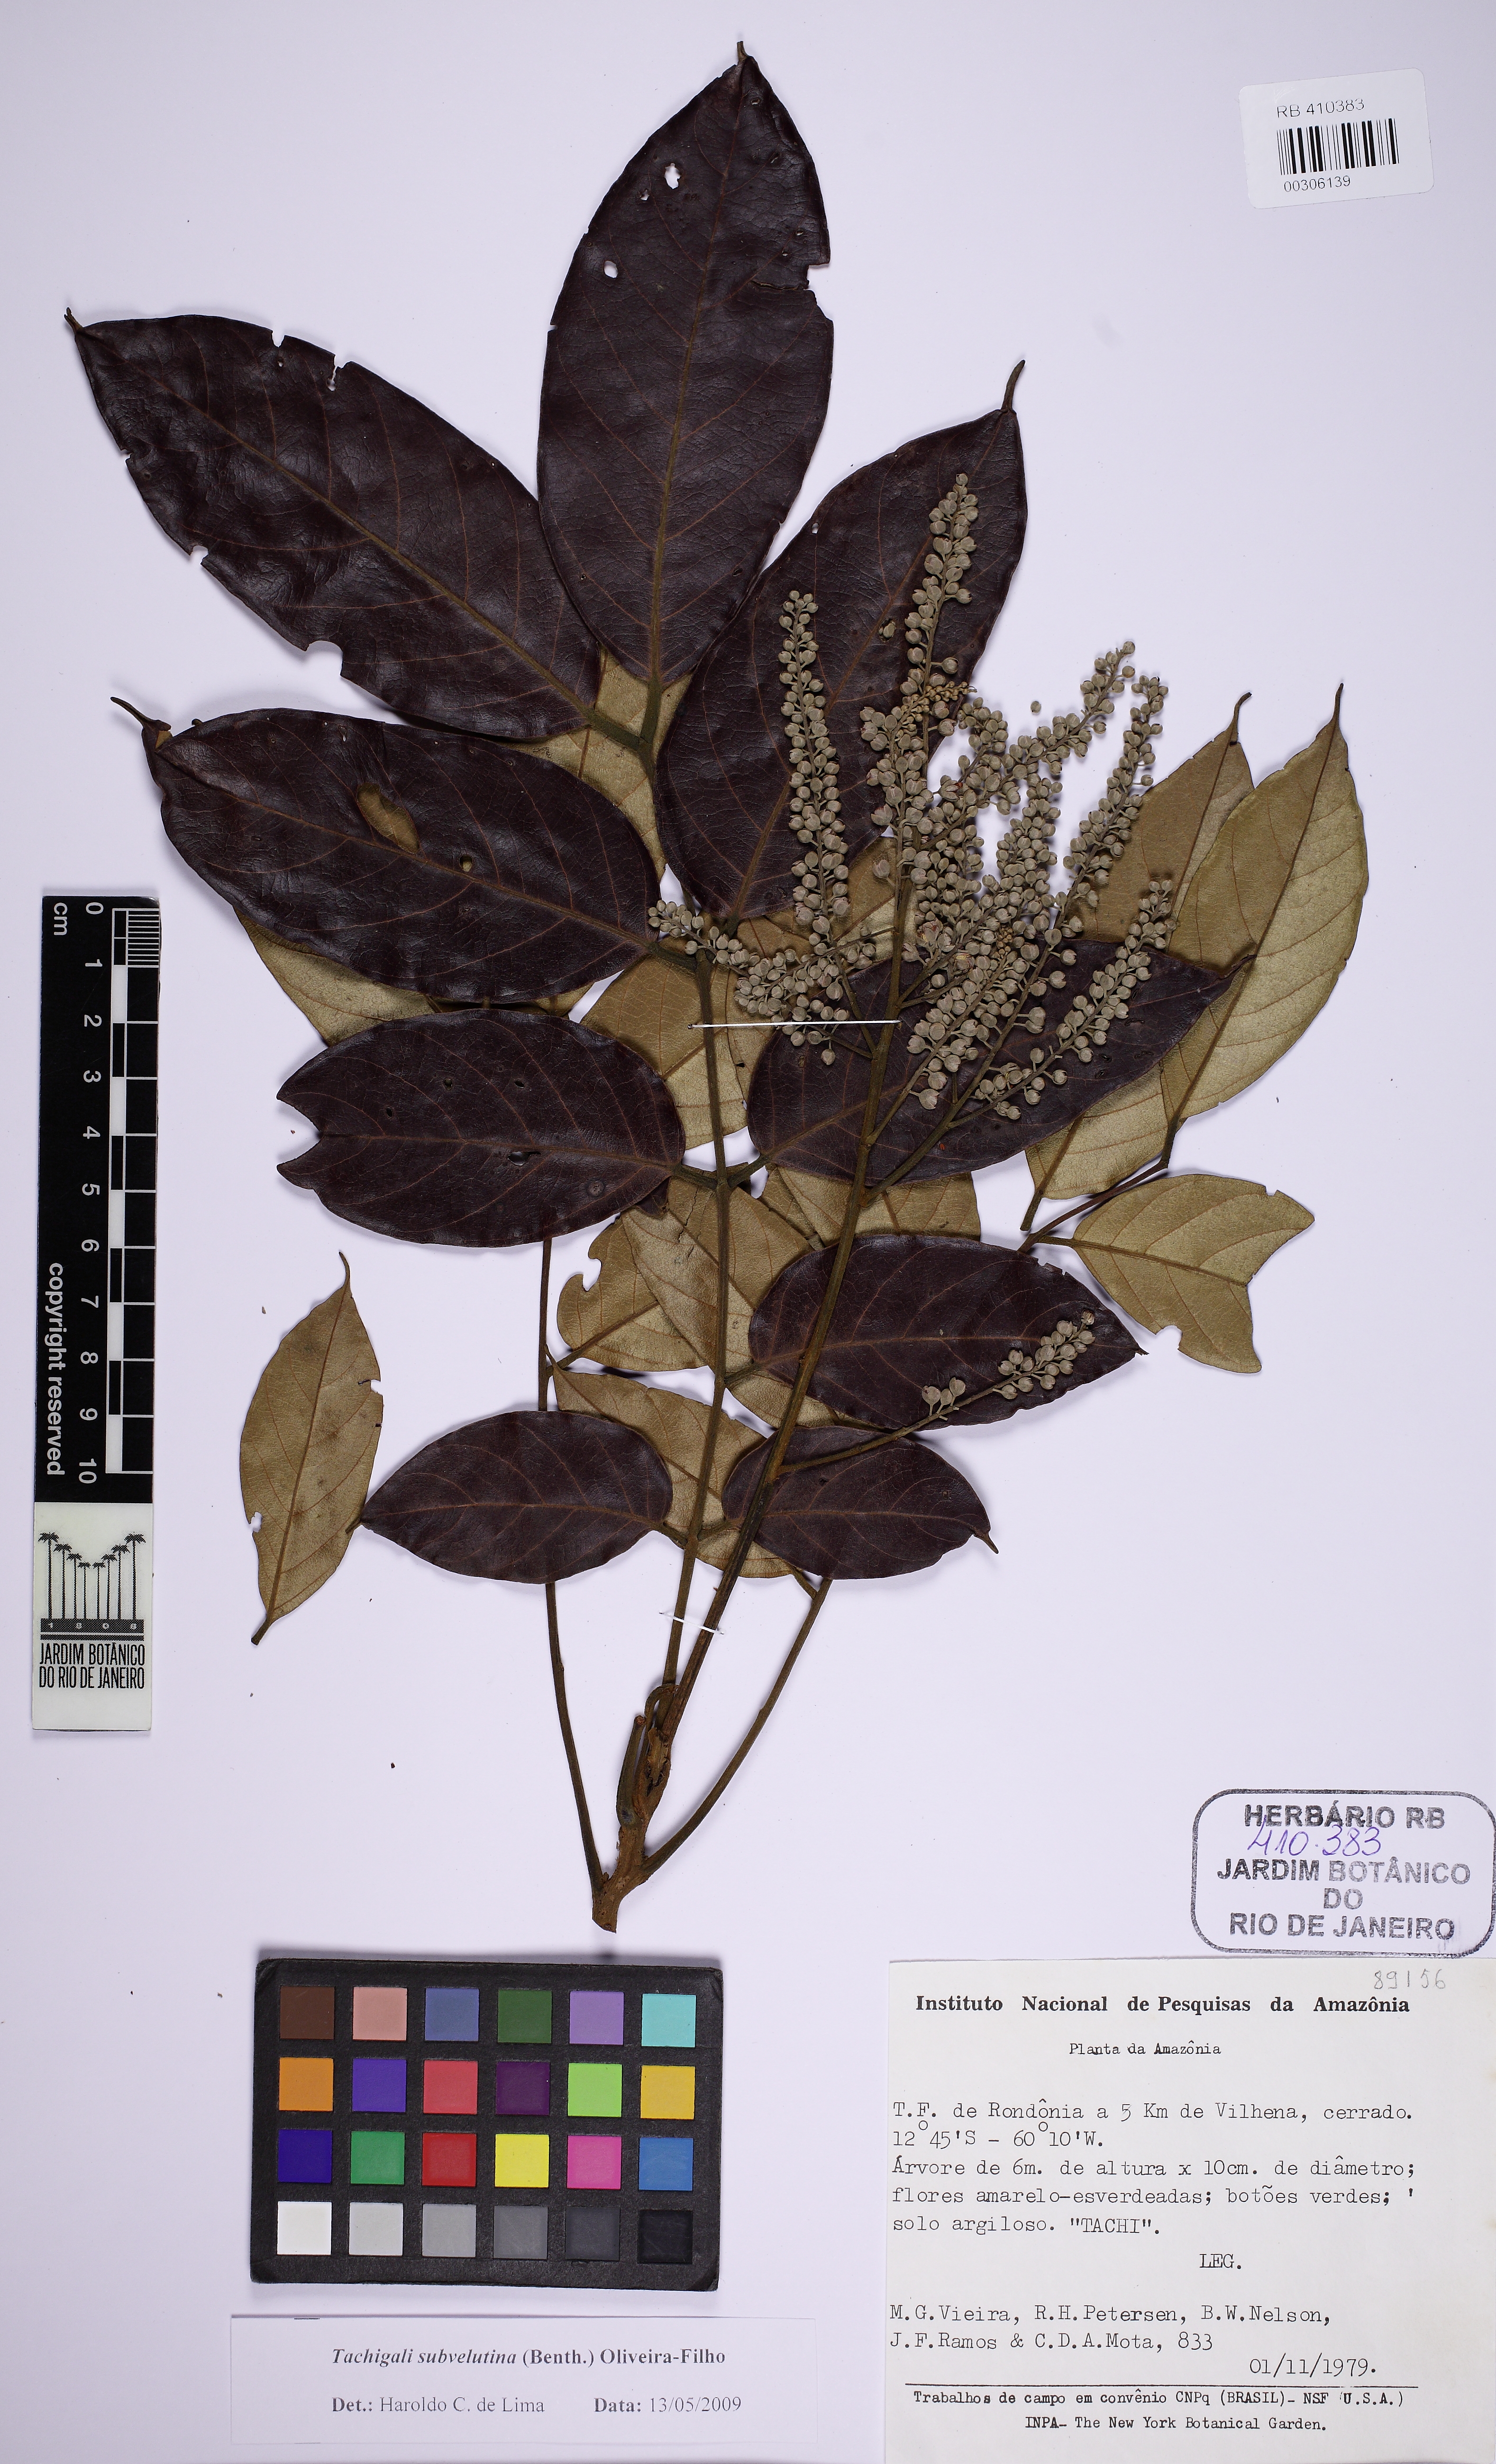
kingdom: Plantae
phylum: Tracheophyta
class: Magnoliopsida
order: Fabales
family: Fabaceae
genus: Tachigali
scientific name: Tachigali subvelutina
